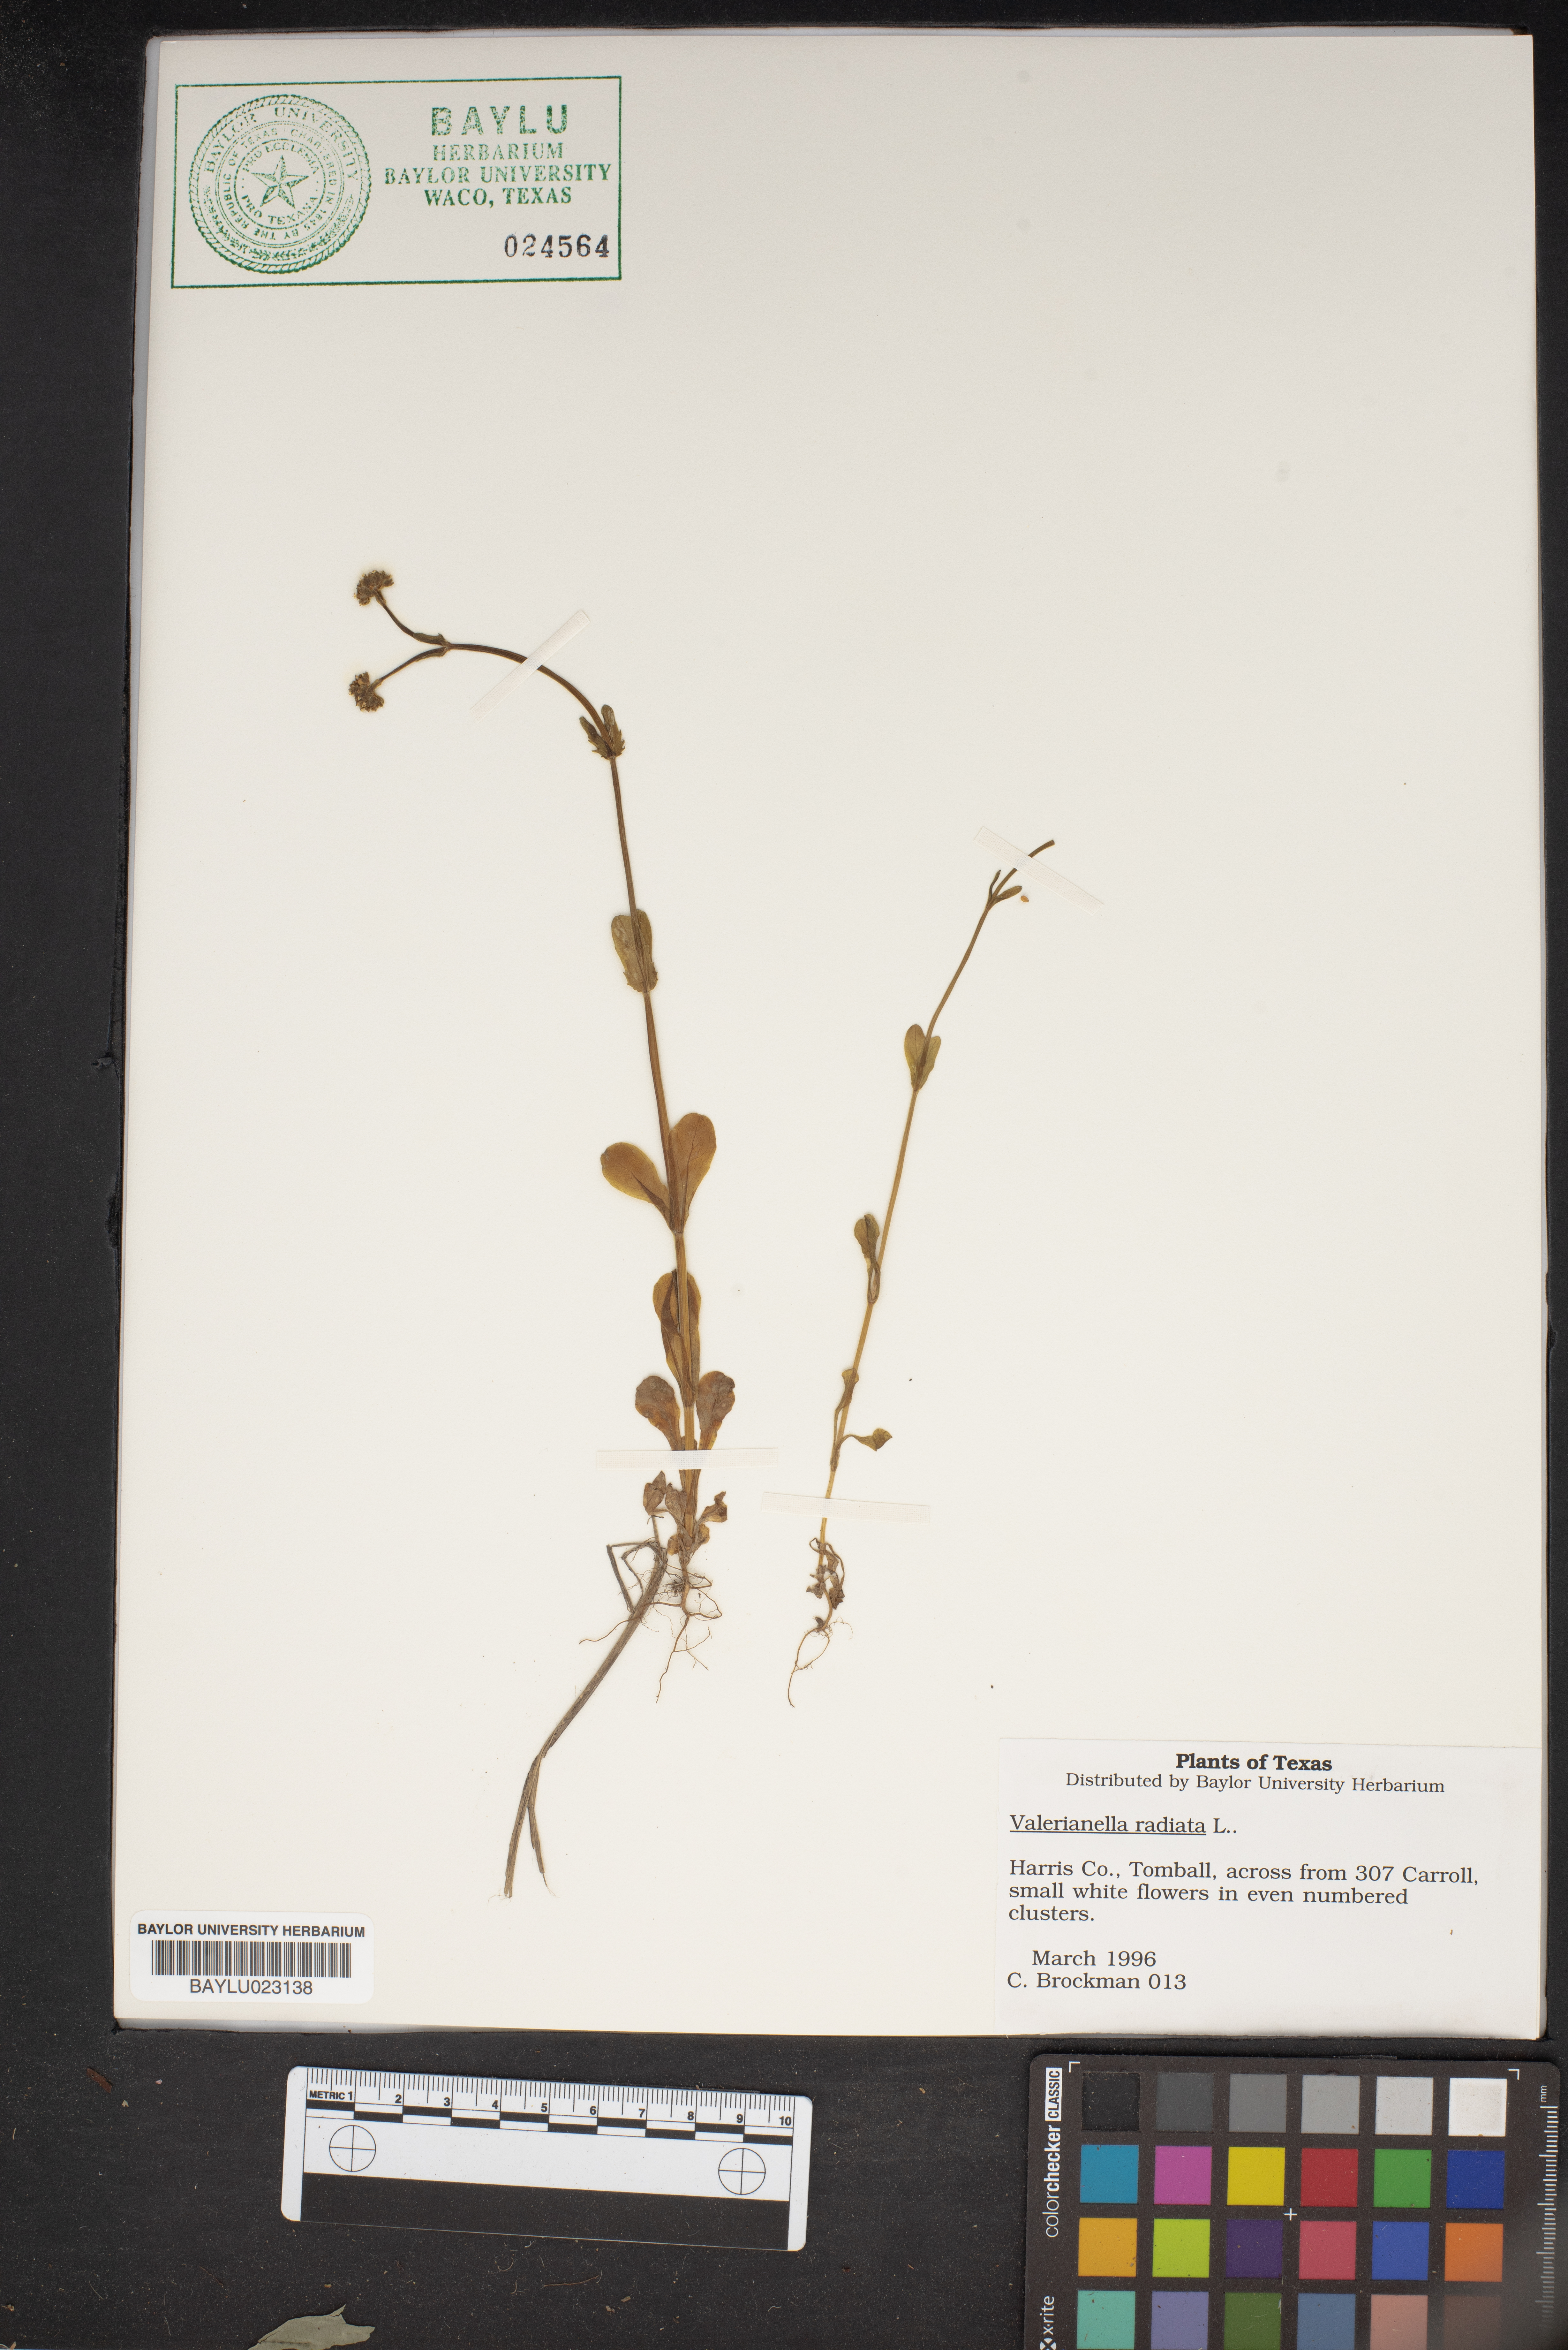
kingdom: Plantae
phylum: Tracheophyta
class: Magnoliopsida
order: Dipsacales
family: Caprifoliaceae
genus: Valerianella
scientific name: Valerianella radiata
